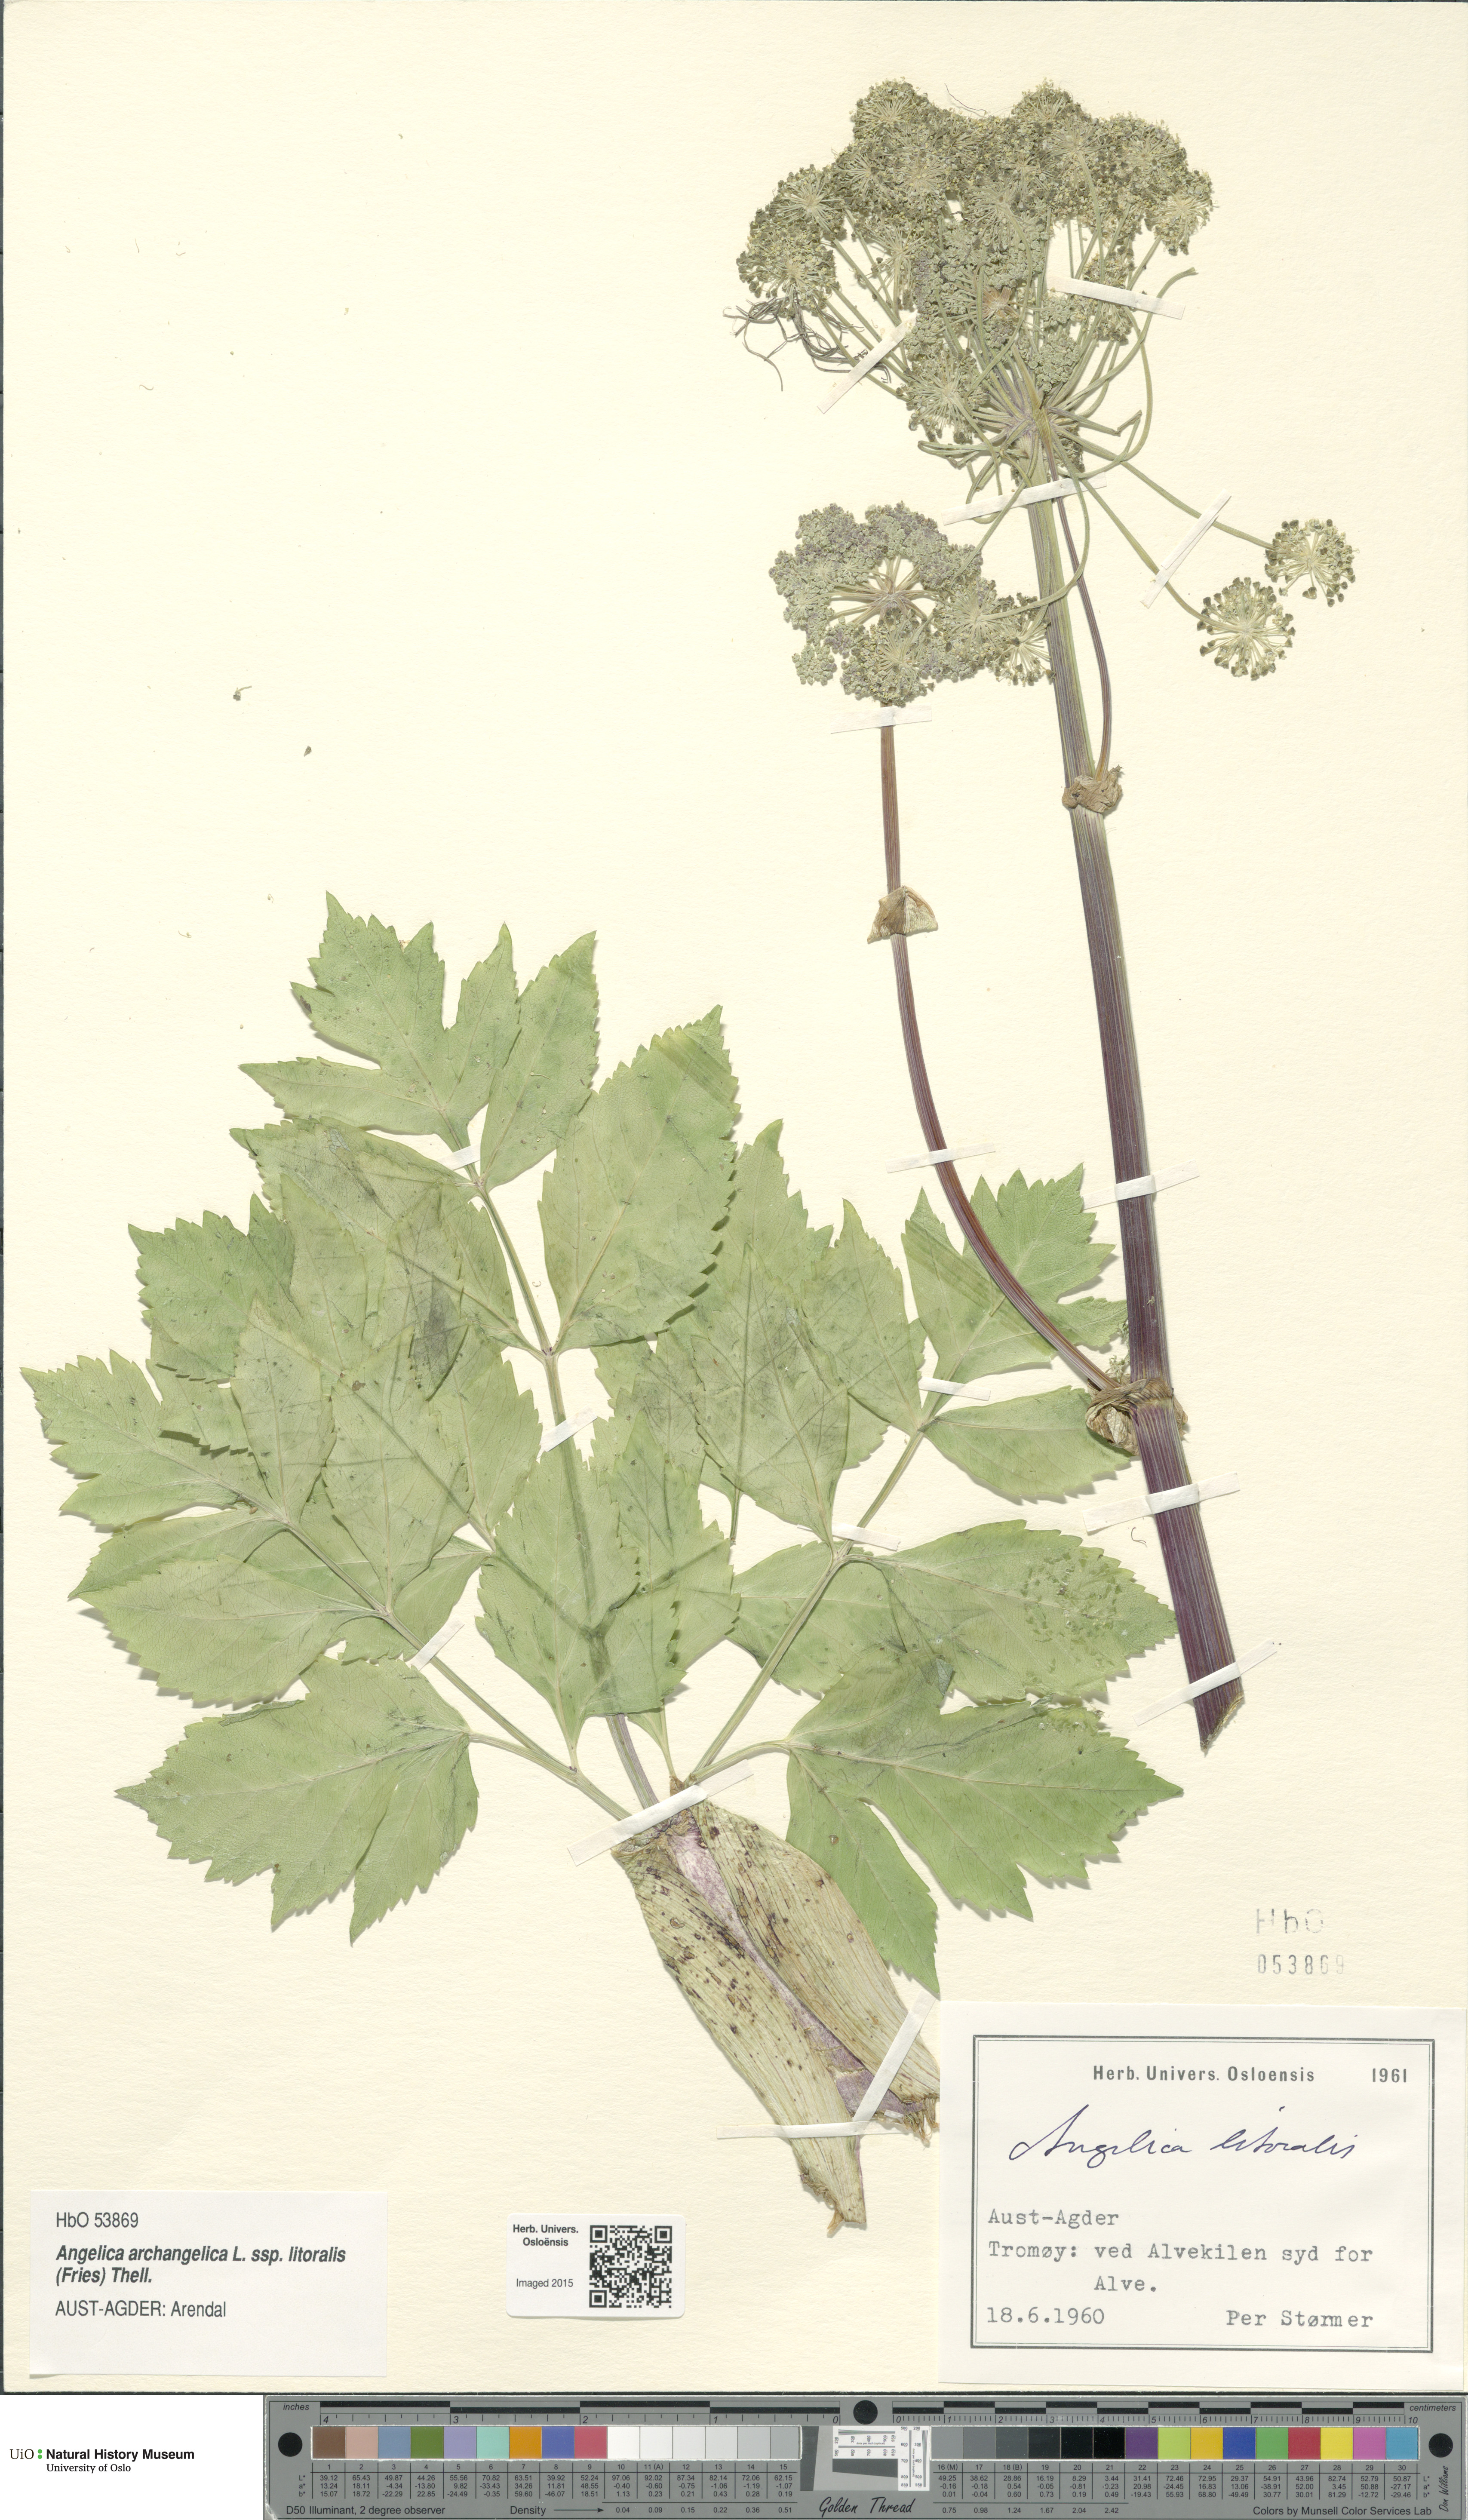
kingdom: Plantae
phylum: Tracheophyta
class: Magnoliopsida
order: Apiales
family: Apiaceae
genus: Angelica
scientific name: Angelica archangelica
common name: Garden angelica
